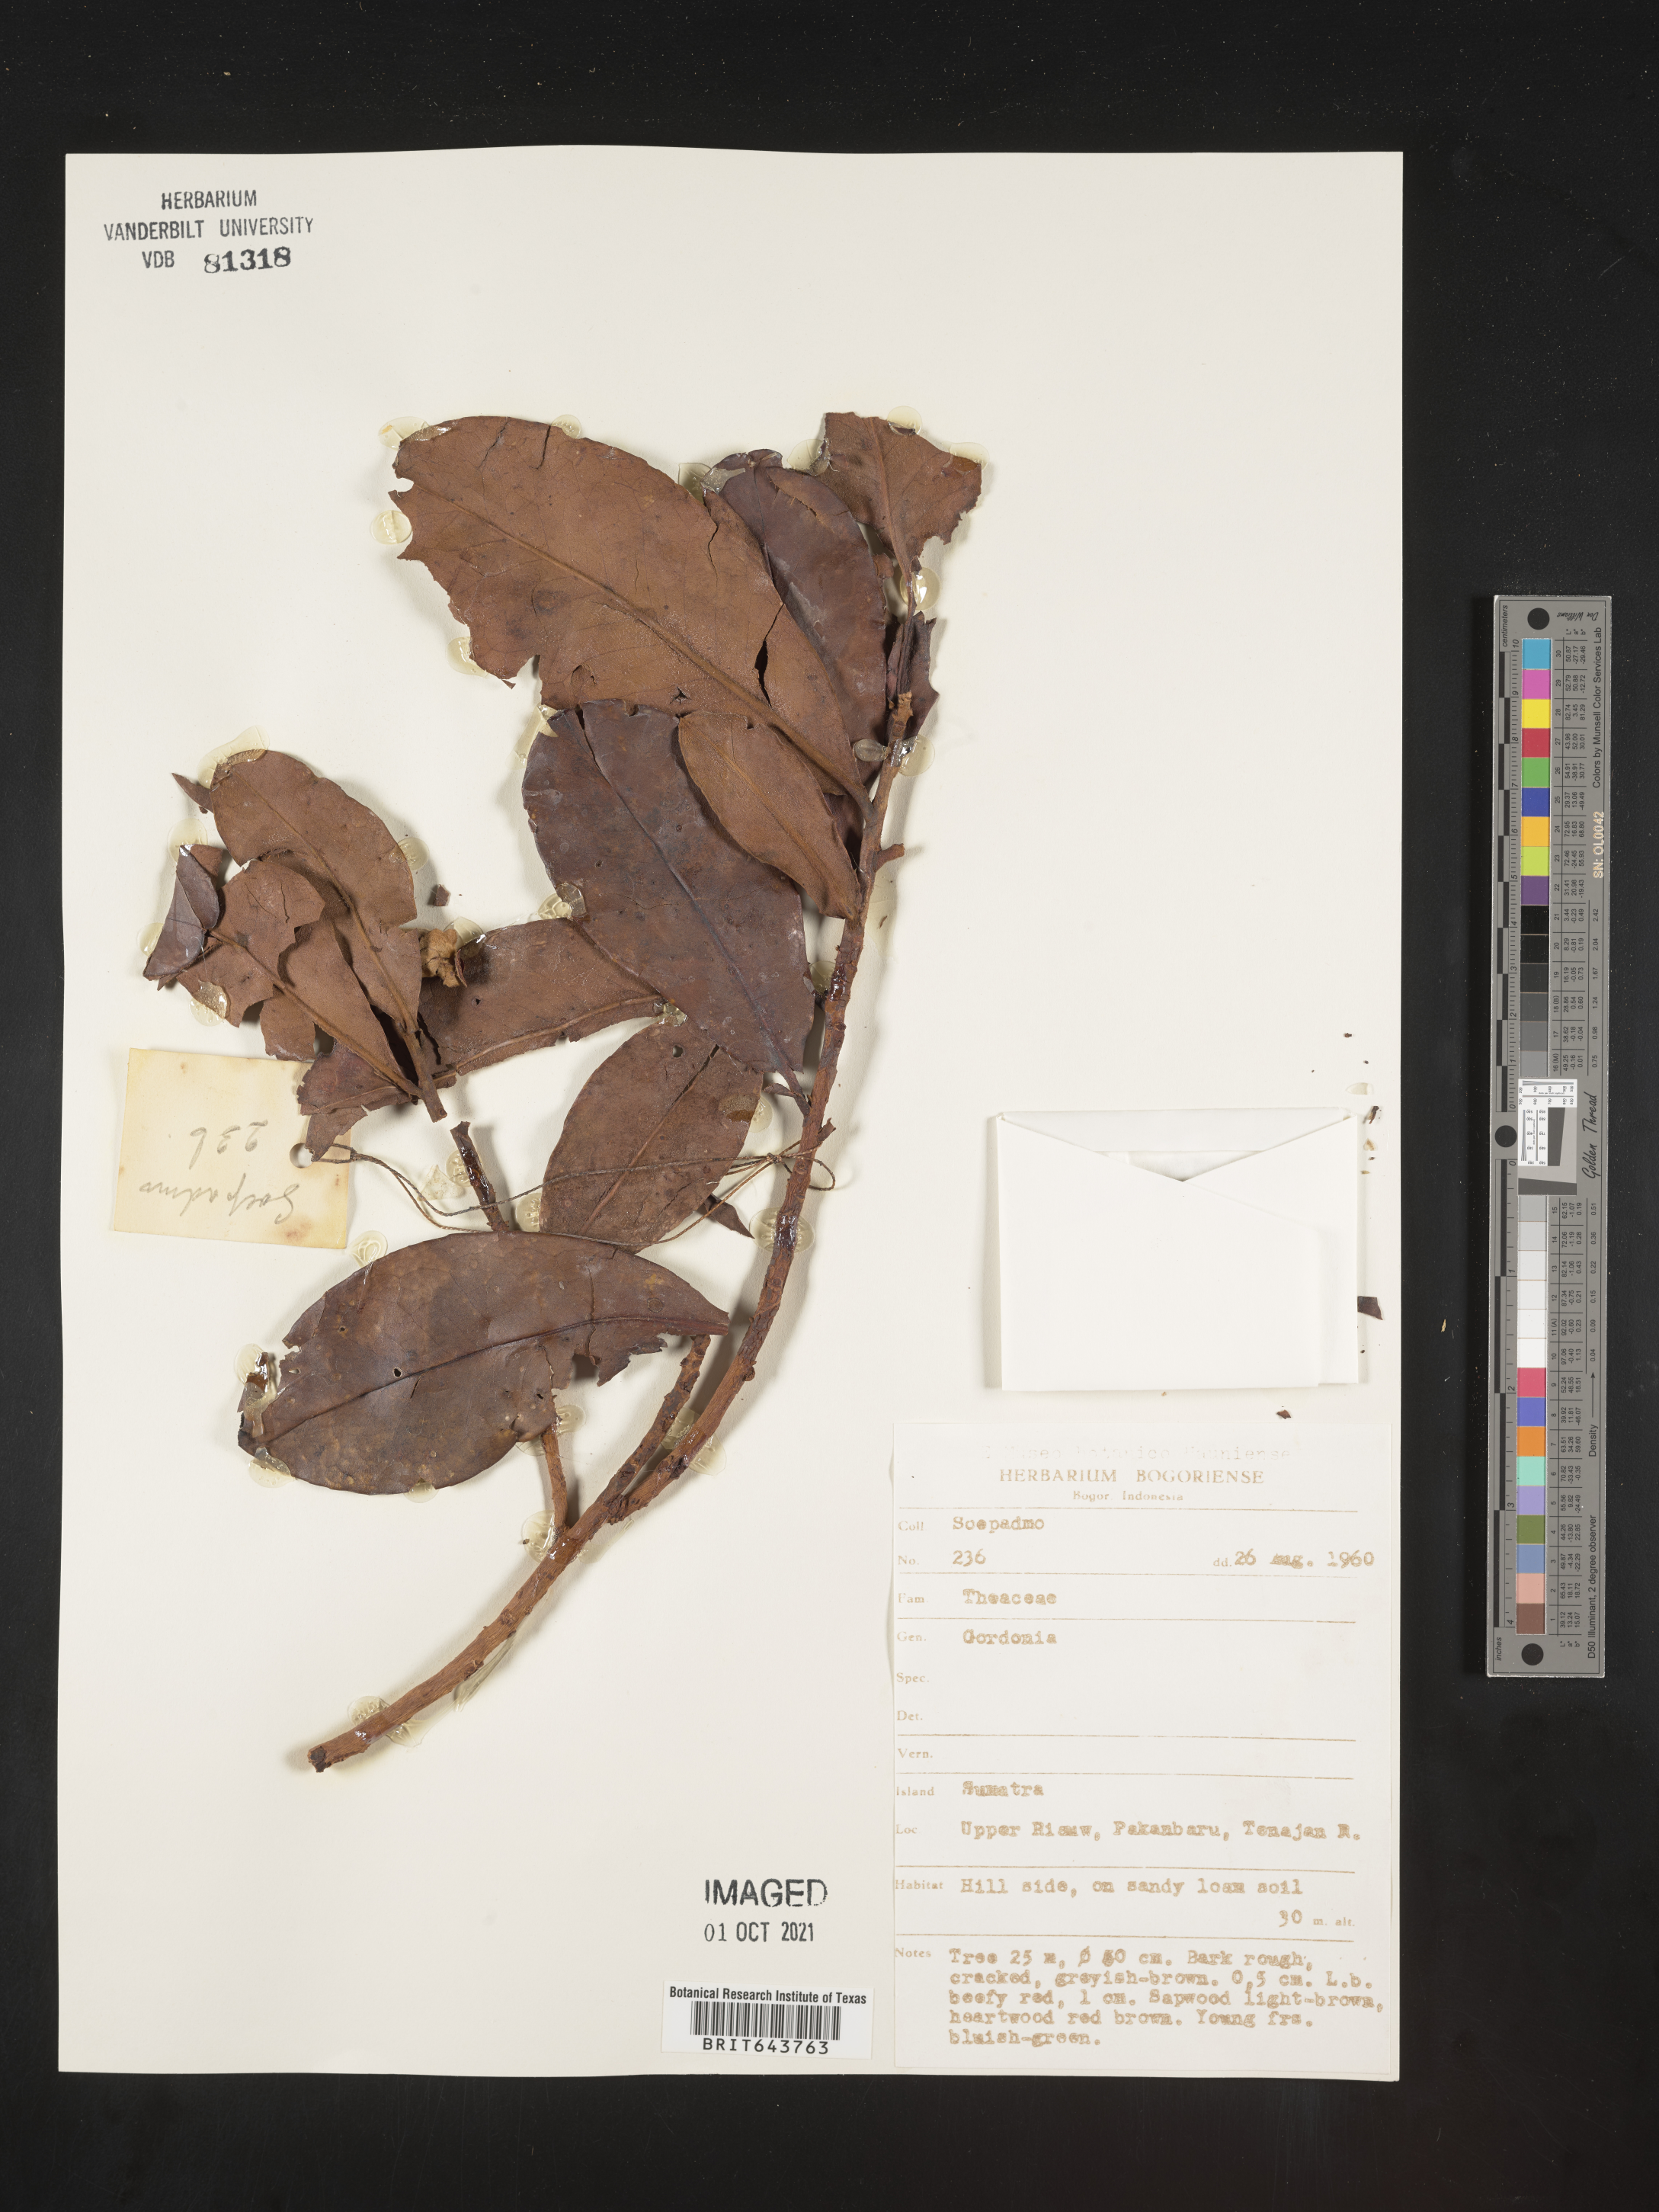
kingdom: Plantae
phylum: Tracheophyta
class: Magnoliopsida
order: Ericales
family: Theaceae
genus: Gordonia
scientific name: Gordonia
